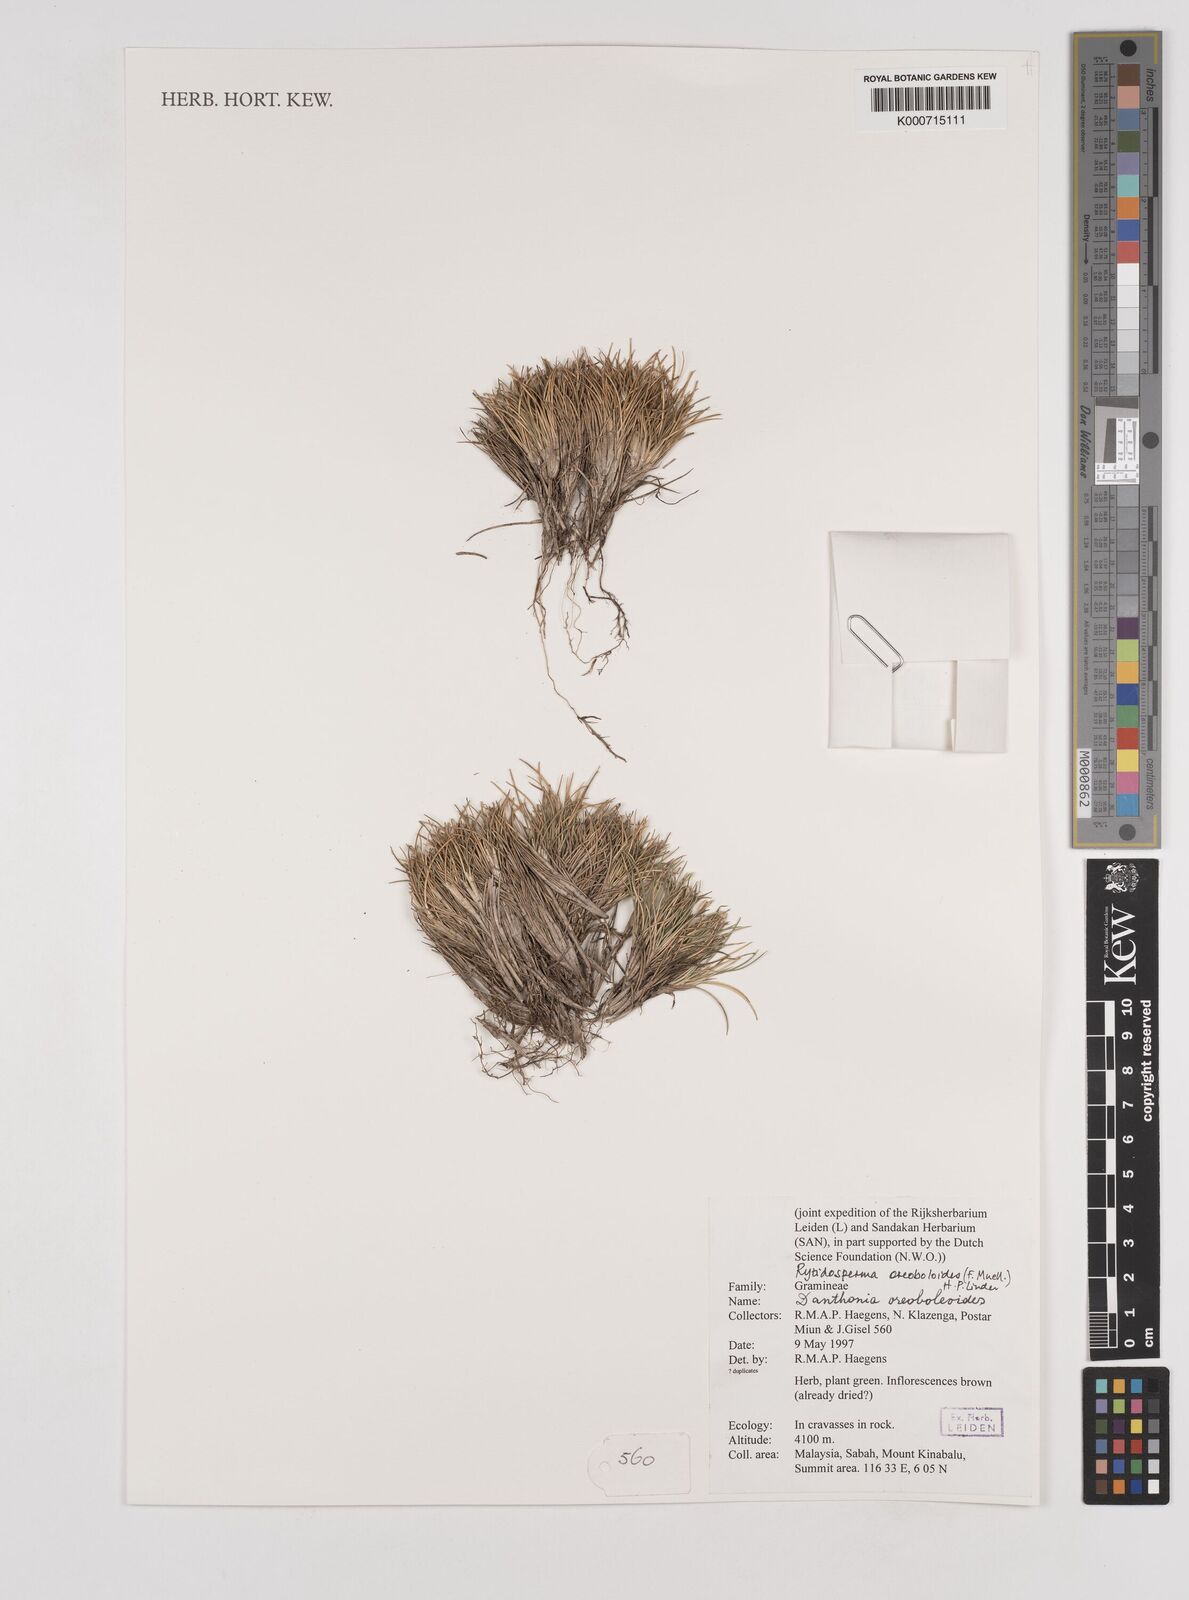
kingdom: Plantae
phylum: Tracheophyta
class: Liliopsida
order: Poales
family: Poaceae
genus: Rytidosperma
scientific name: Rytidosperma oreoboloides
